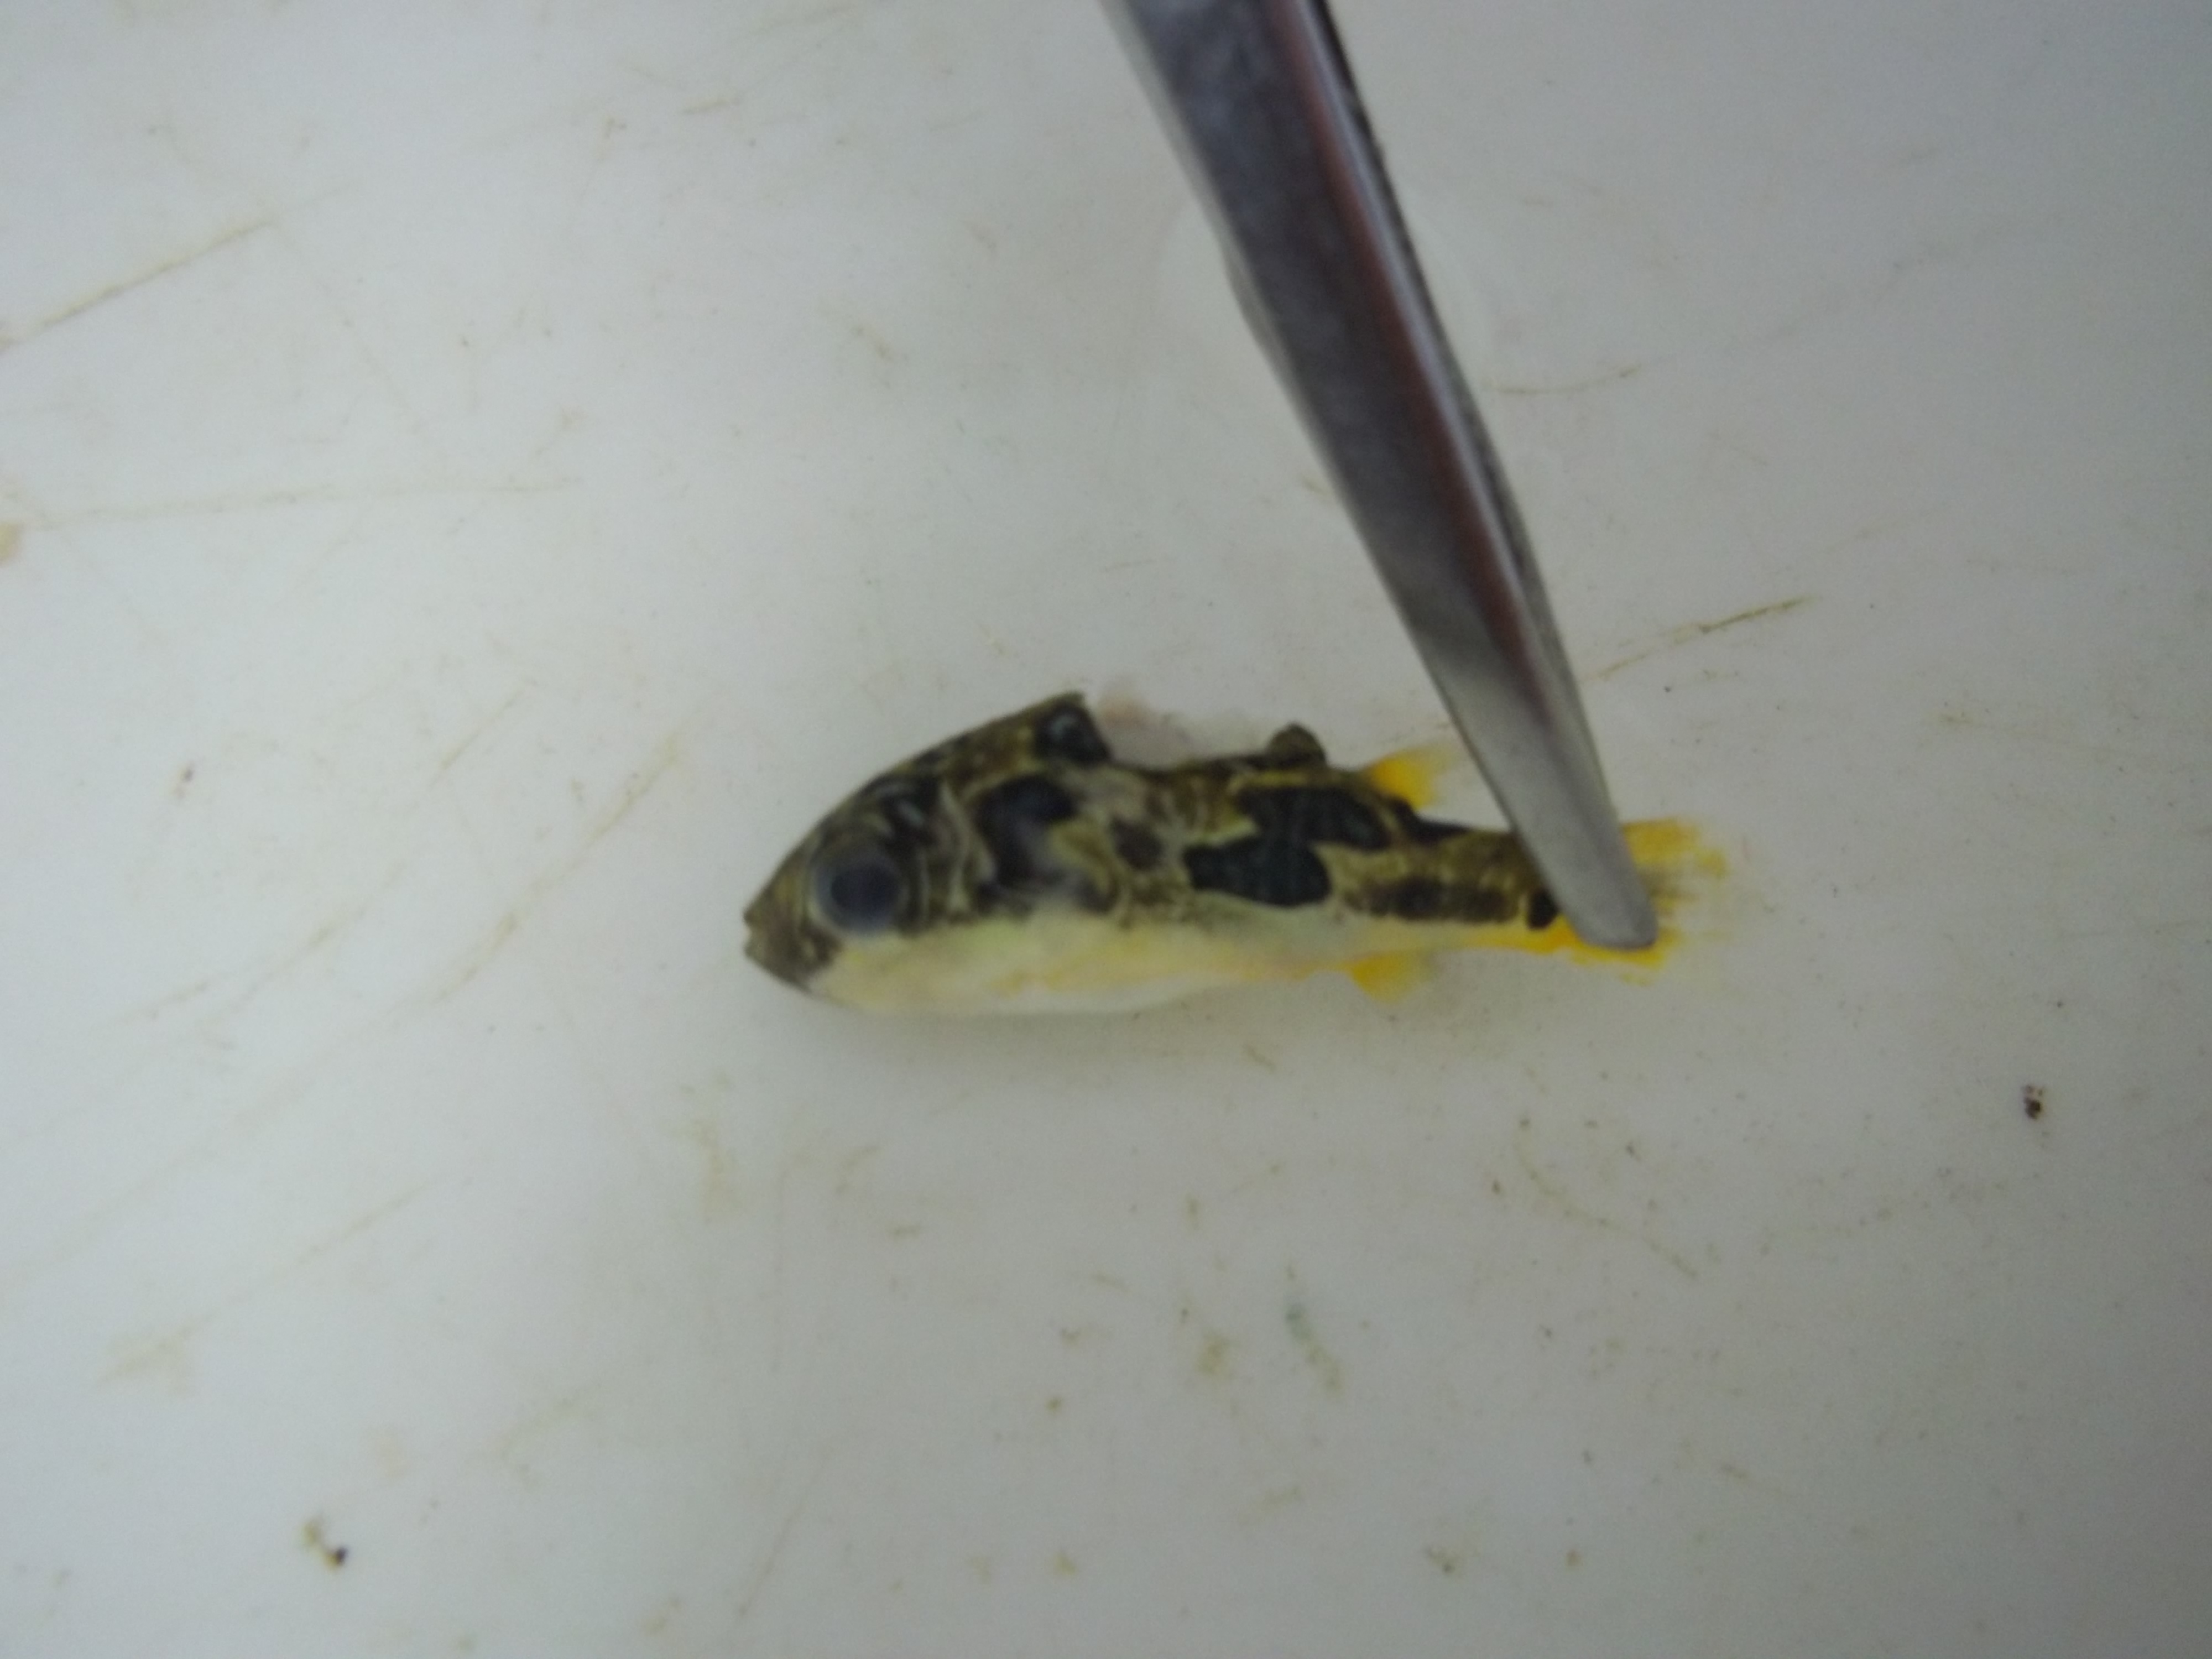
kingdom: Animalia
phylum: Chordata
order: Tetraodontiformes
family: Tetraodontidae
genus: Carinotetraodon
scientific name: Carinotetraodon travancoricus
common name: Dwarf indian puffer
